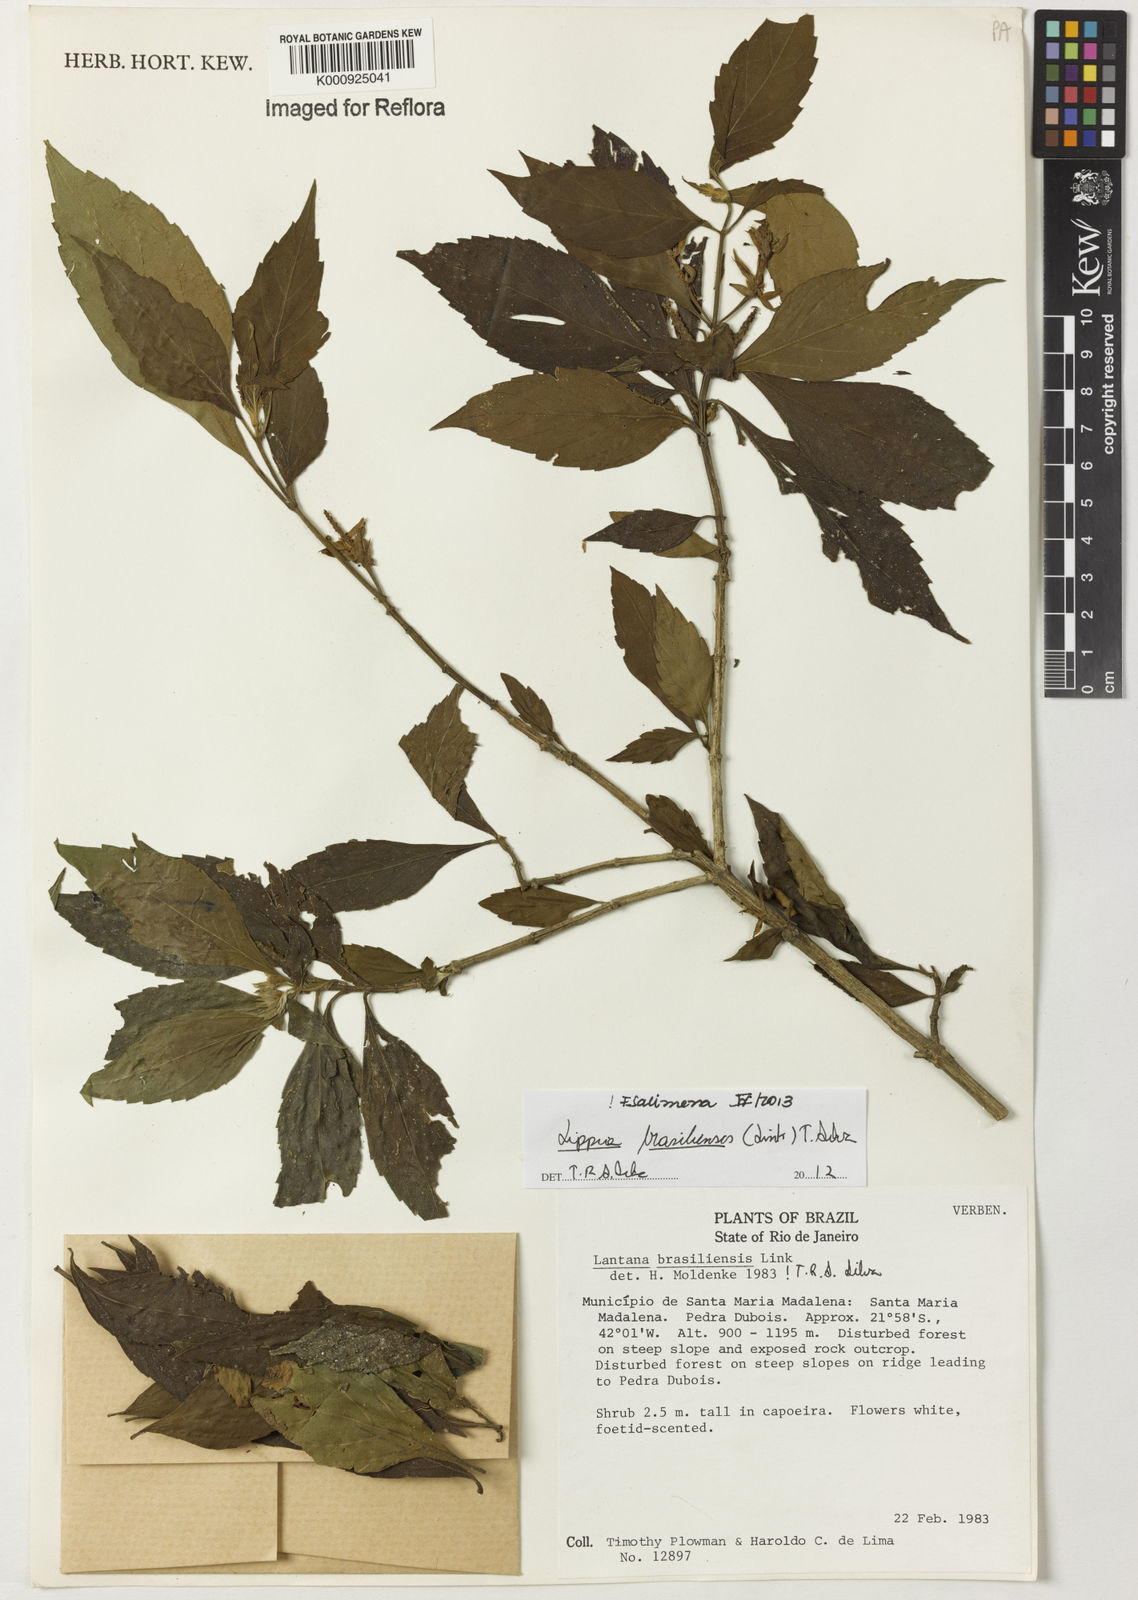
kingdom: Plantae
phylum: Tracheophyta
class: Magnoliopsida
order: Lamiales
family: Verbenaceae
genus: Lippia
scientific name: Lippia brasiliensis
